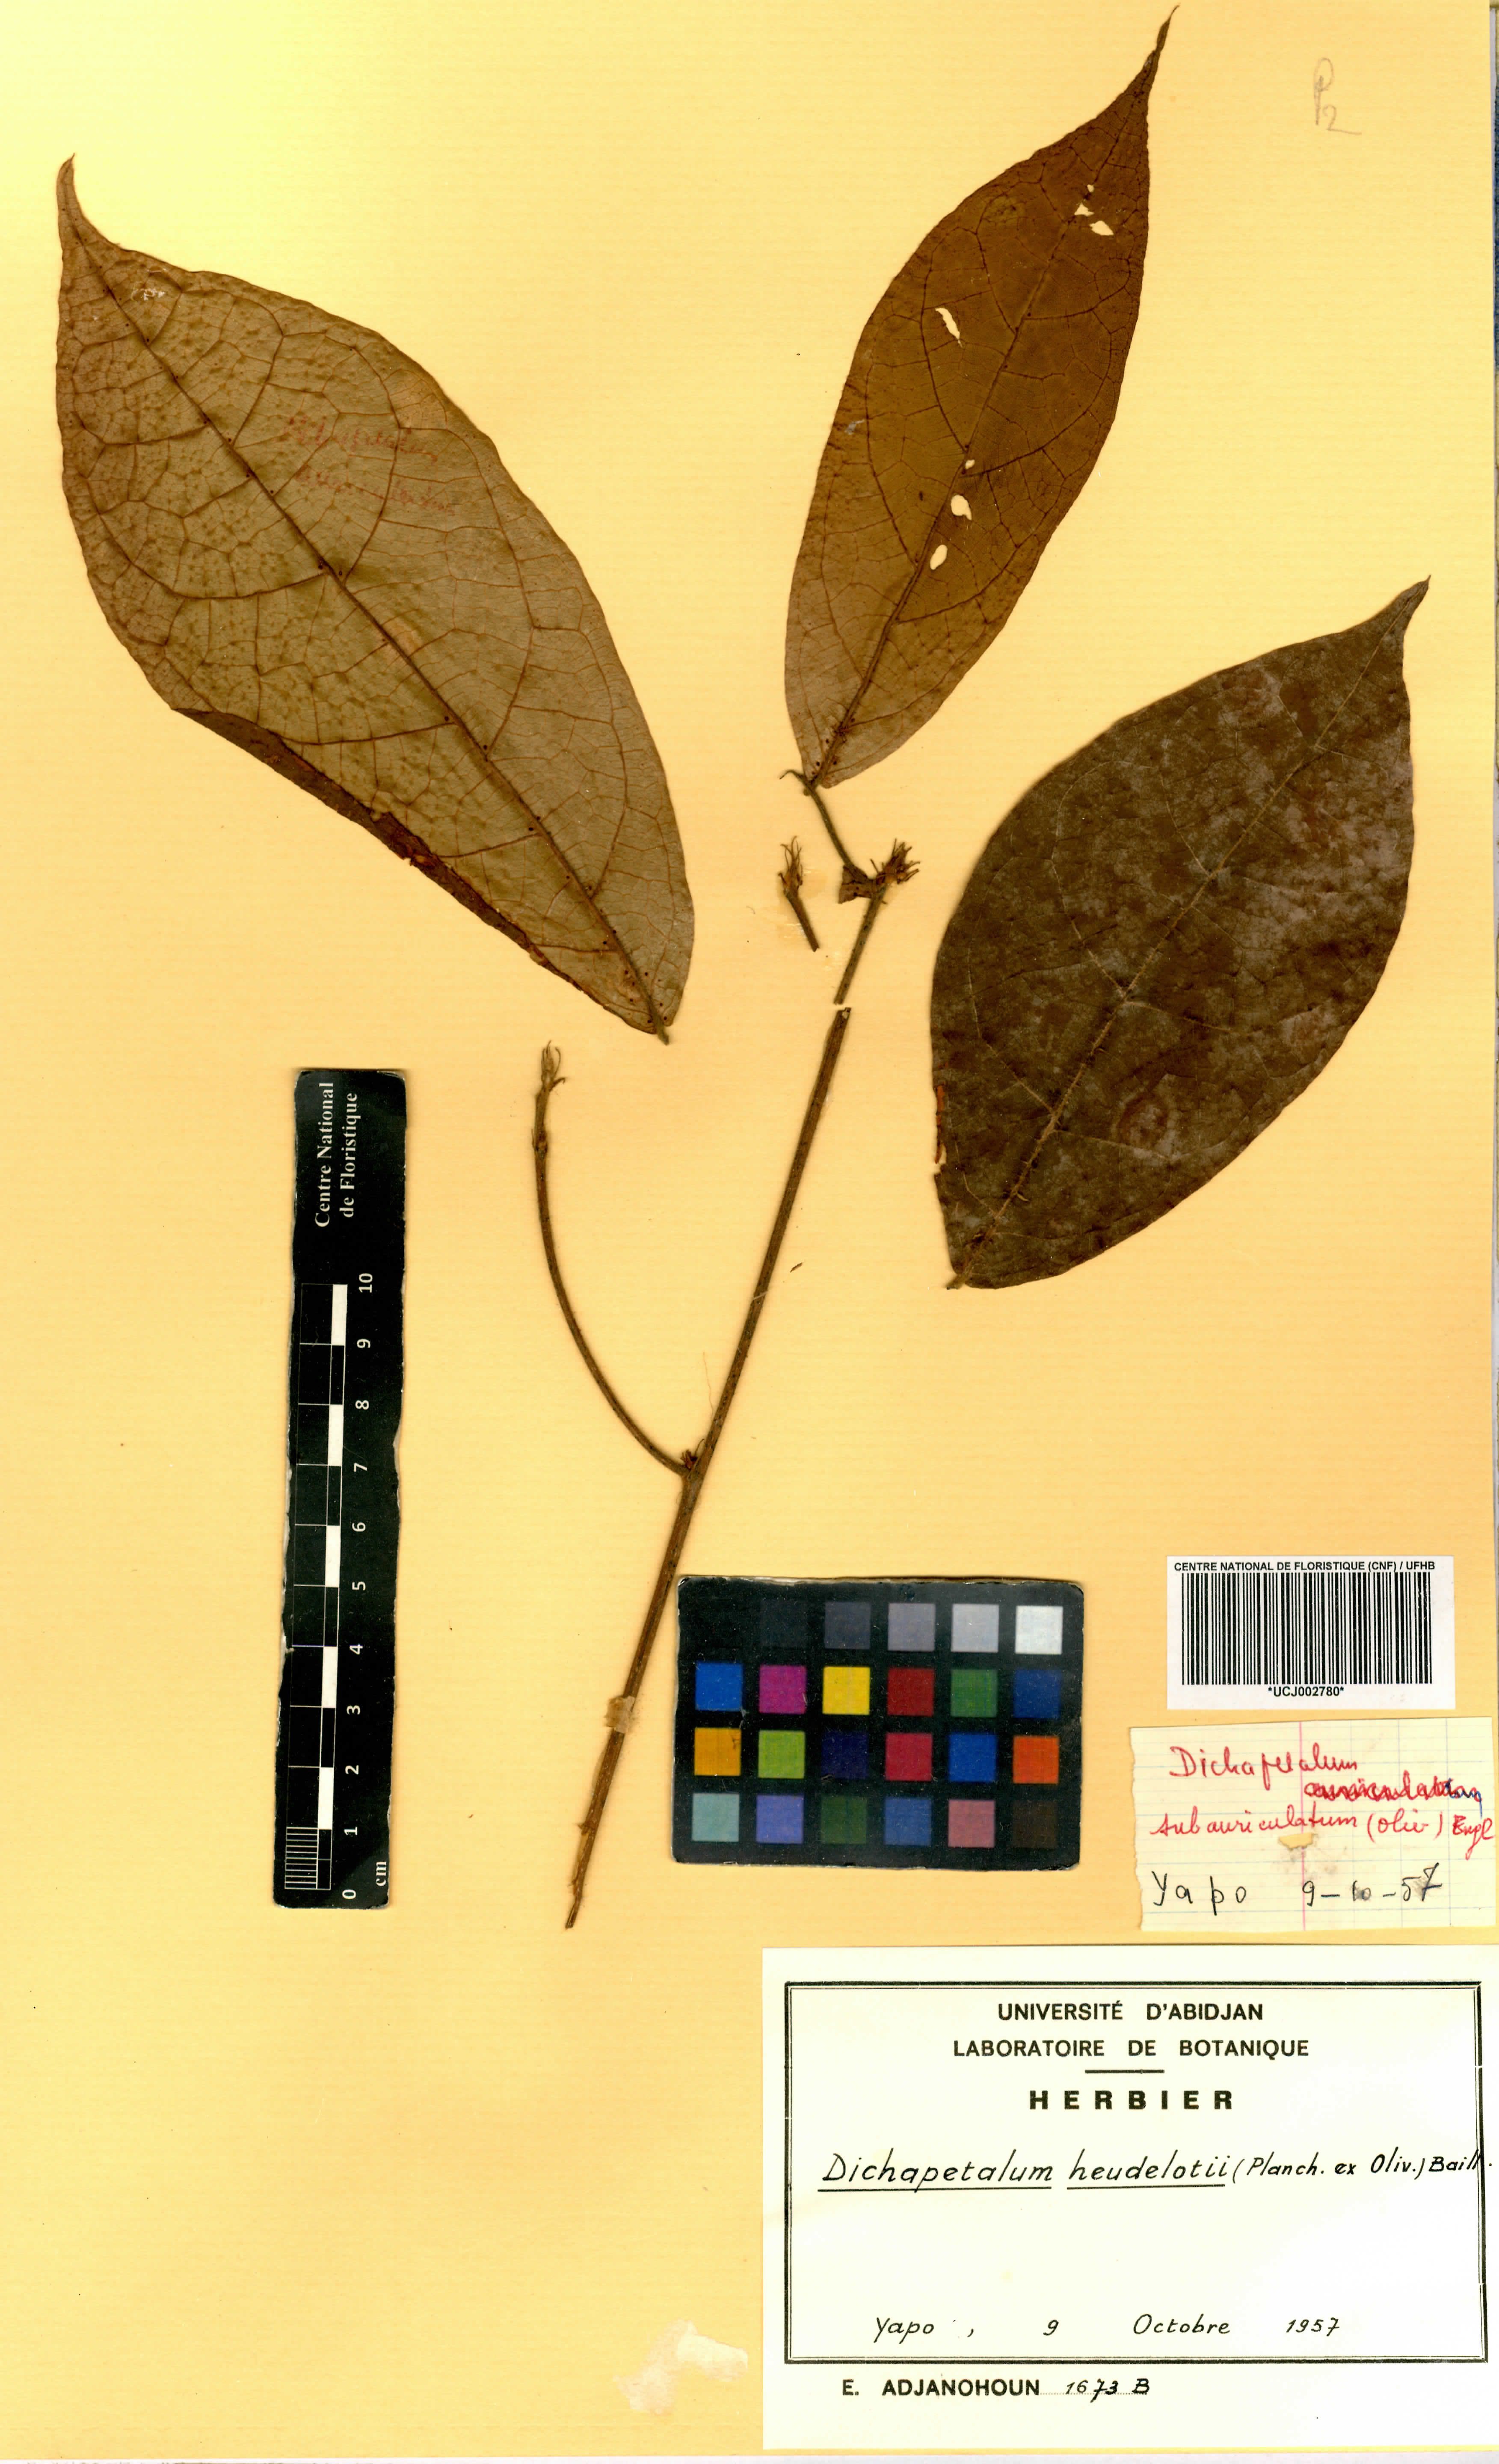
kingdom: Plantae
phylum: Tracheophyta
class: Magnoliopsida
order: Malpighiales
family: Dichapetalaceae
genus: Dichapetalum
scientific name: Dichapetalum heudelotii
